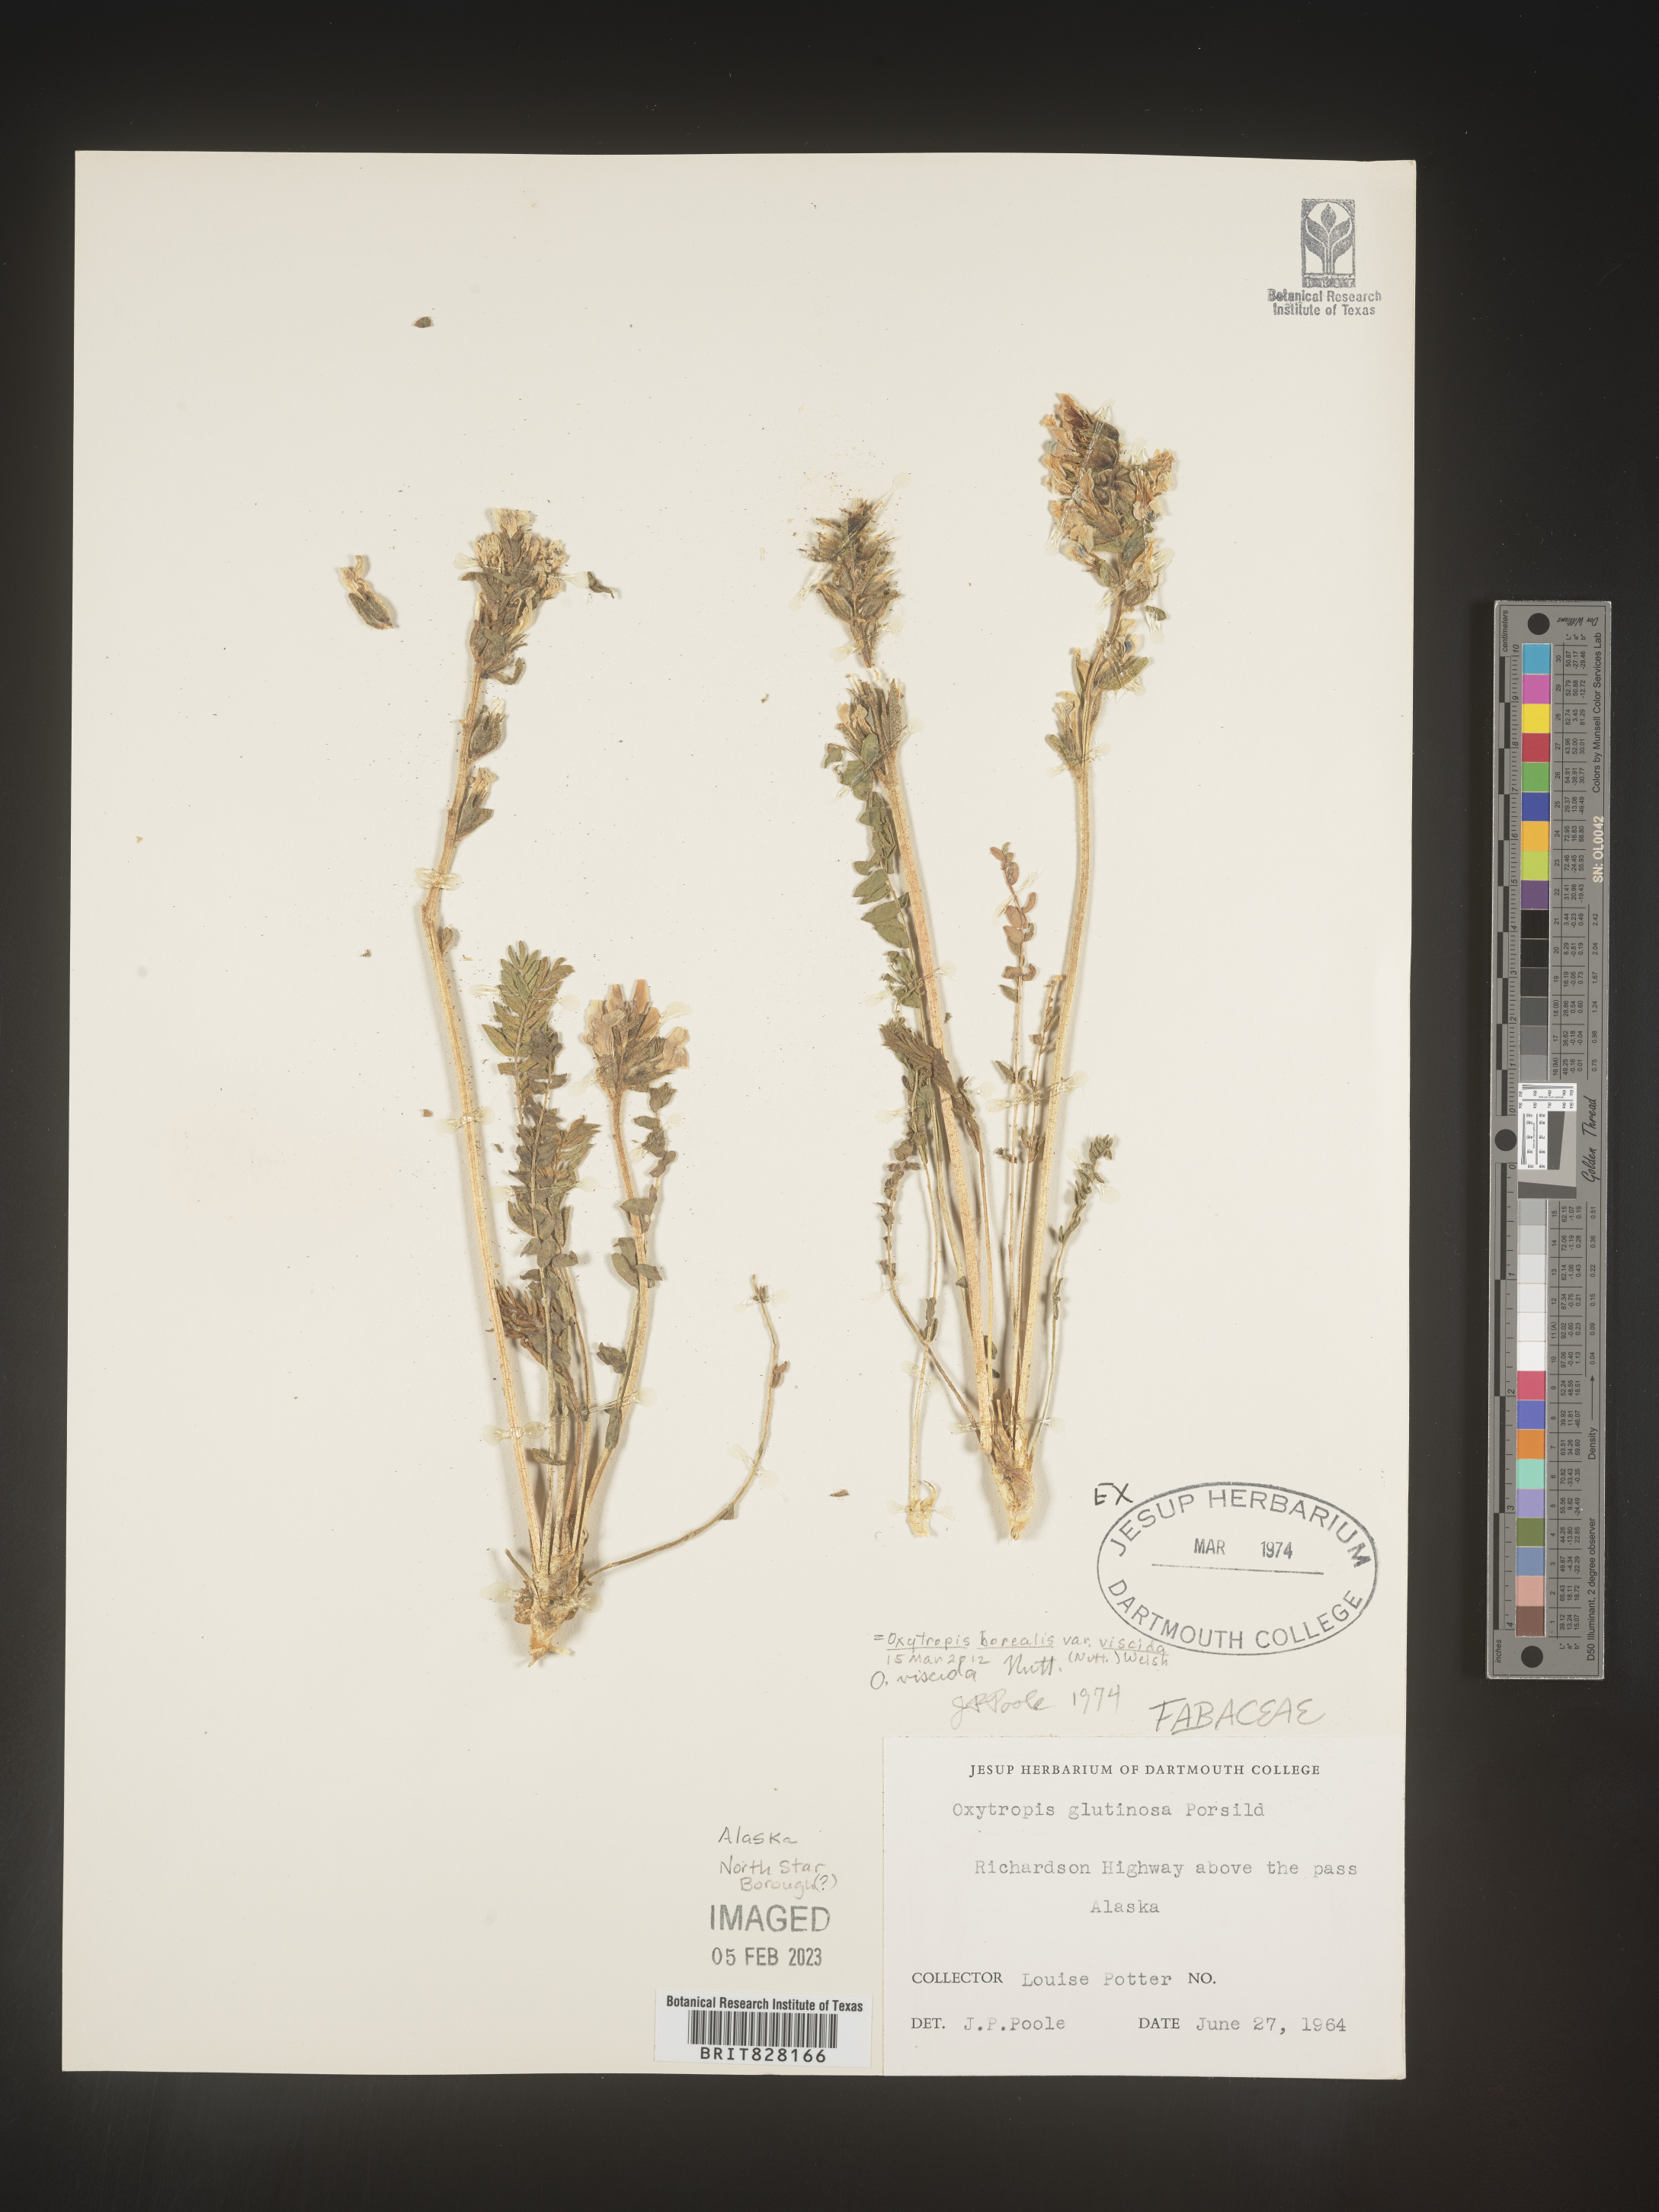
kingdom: Plantae
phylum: Tracheophyta
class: Magnoliopsida
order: Fabales
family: Fabaceae
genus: Oxytropis
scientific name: Oxytropis
